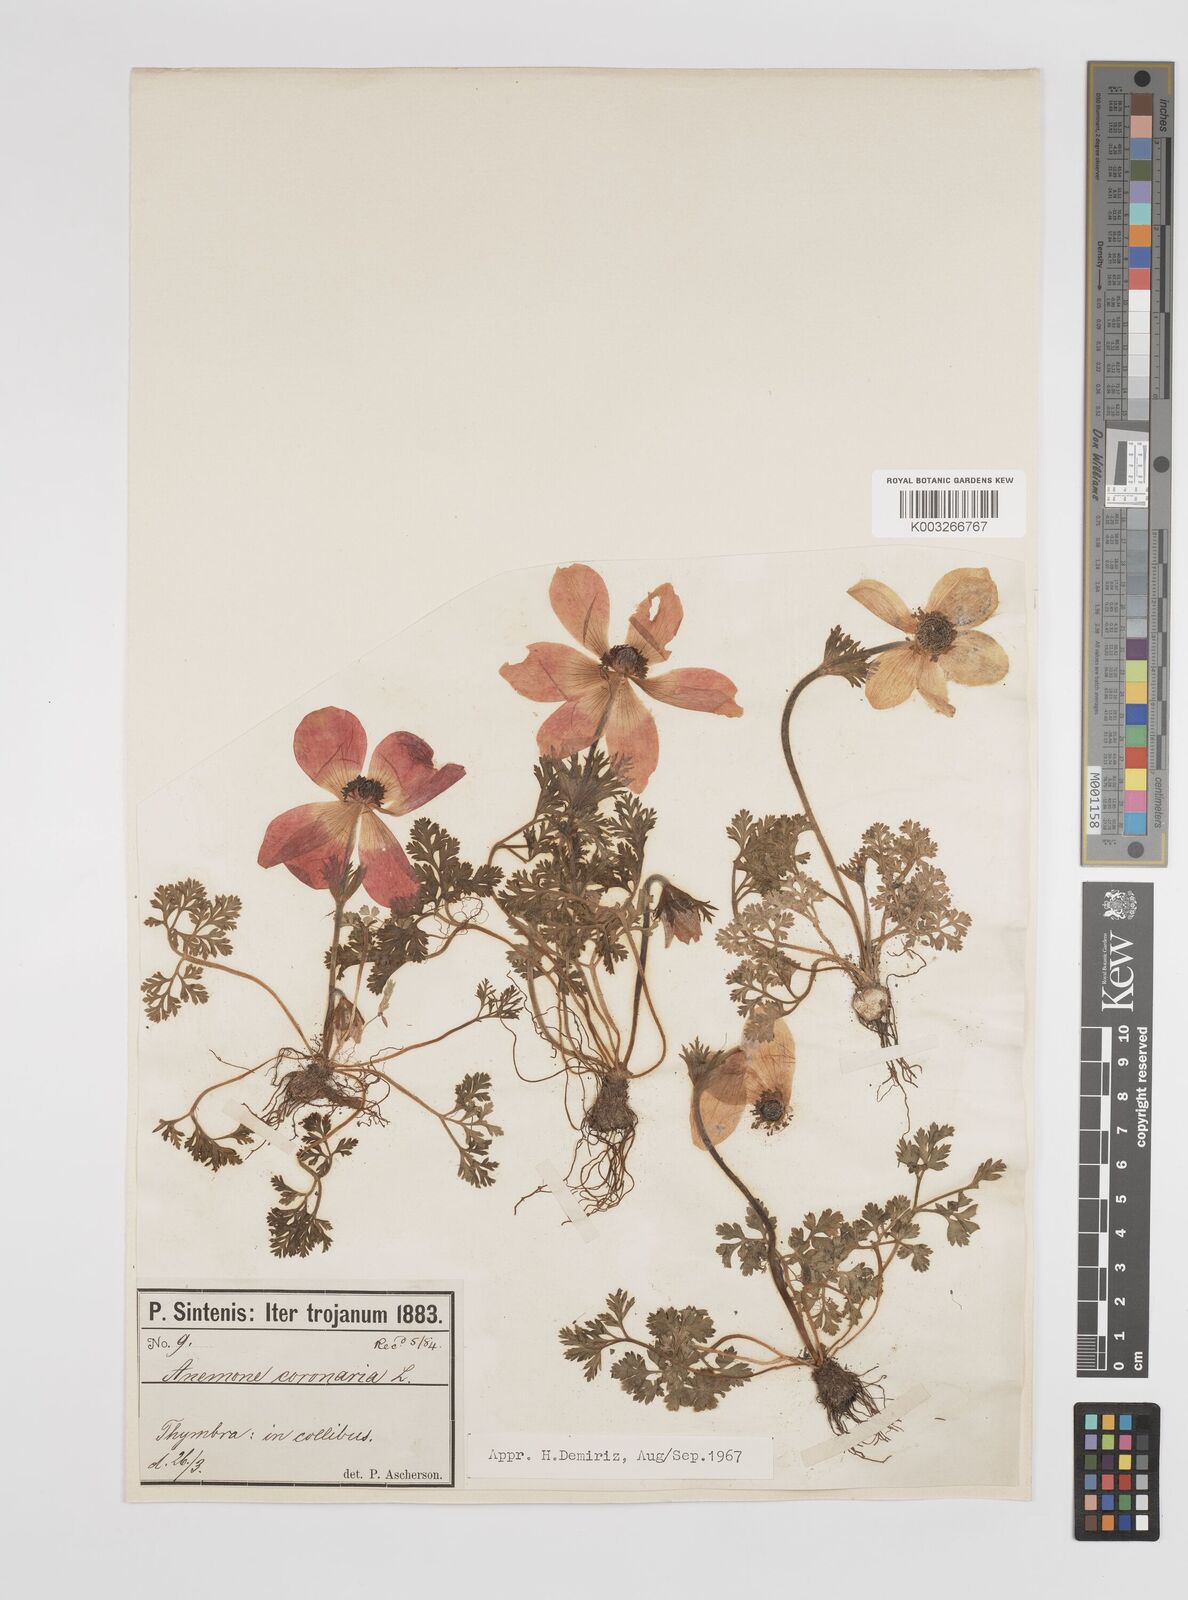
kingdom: Plantae
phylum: Tracheophyta
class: Magnoliopsida
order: Ranunculales
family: Ranunculaceae
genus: Anemone
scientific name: Anemone coronaria
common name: Poppy anemone
